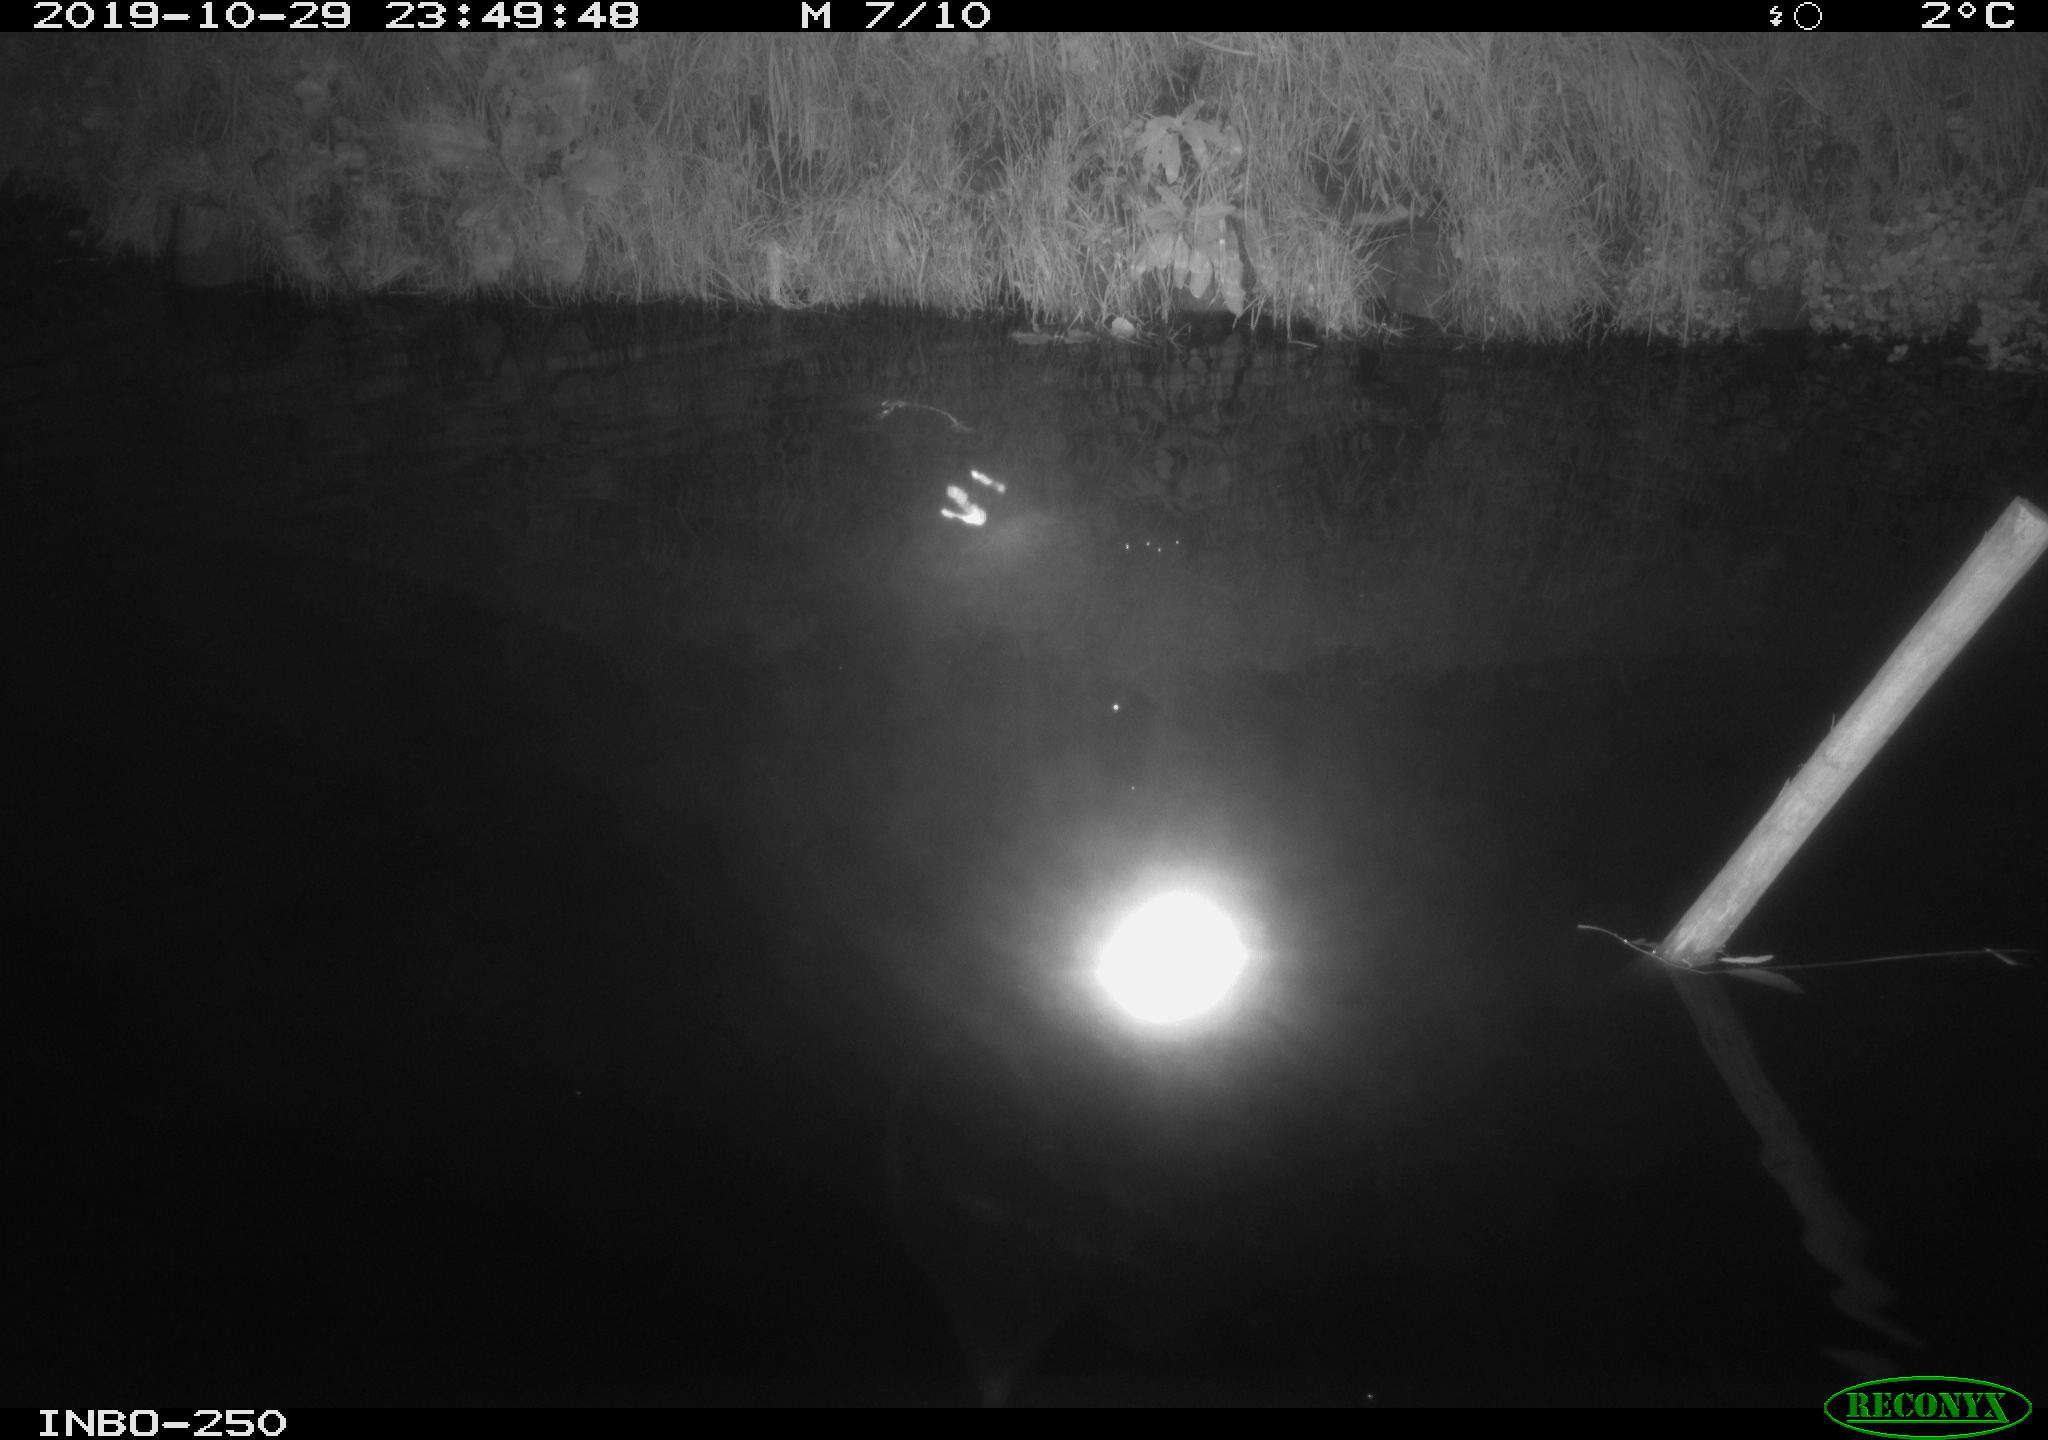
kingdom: Animalia
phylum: Chordata
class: Aves
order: Anseriformes
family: Anatidae
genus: Anas
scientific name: Anas platyrhynchos
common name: Mallard
